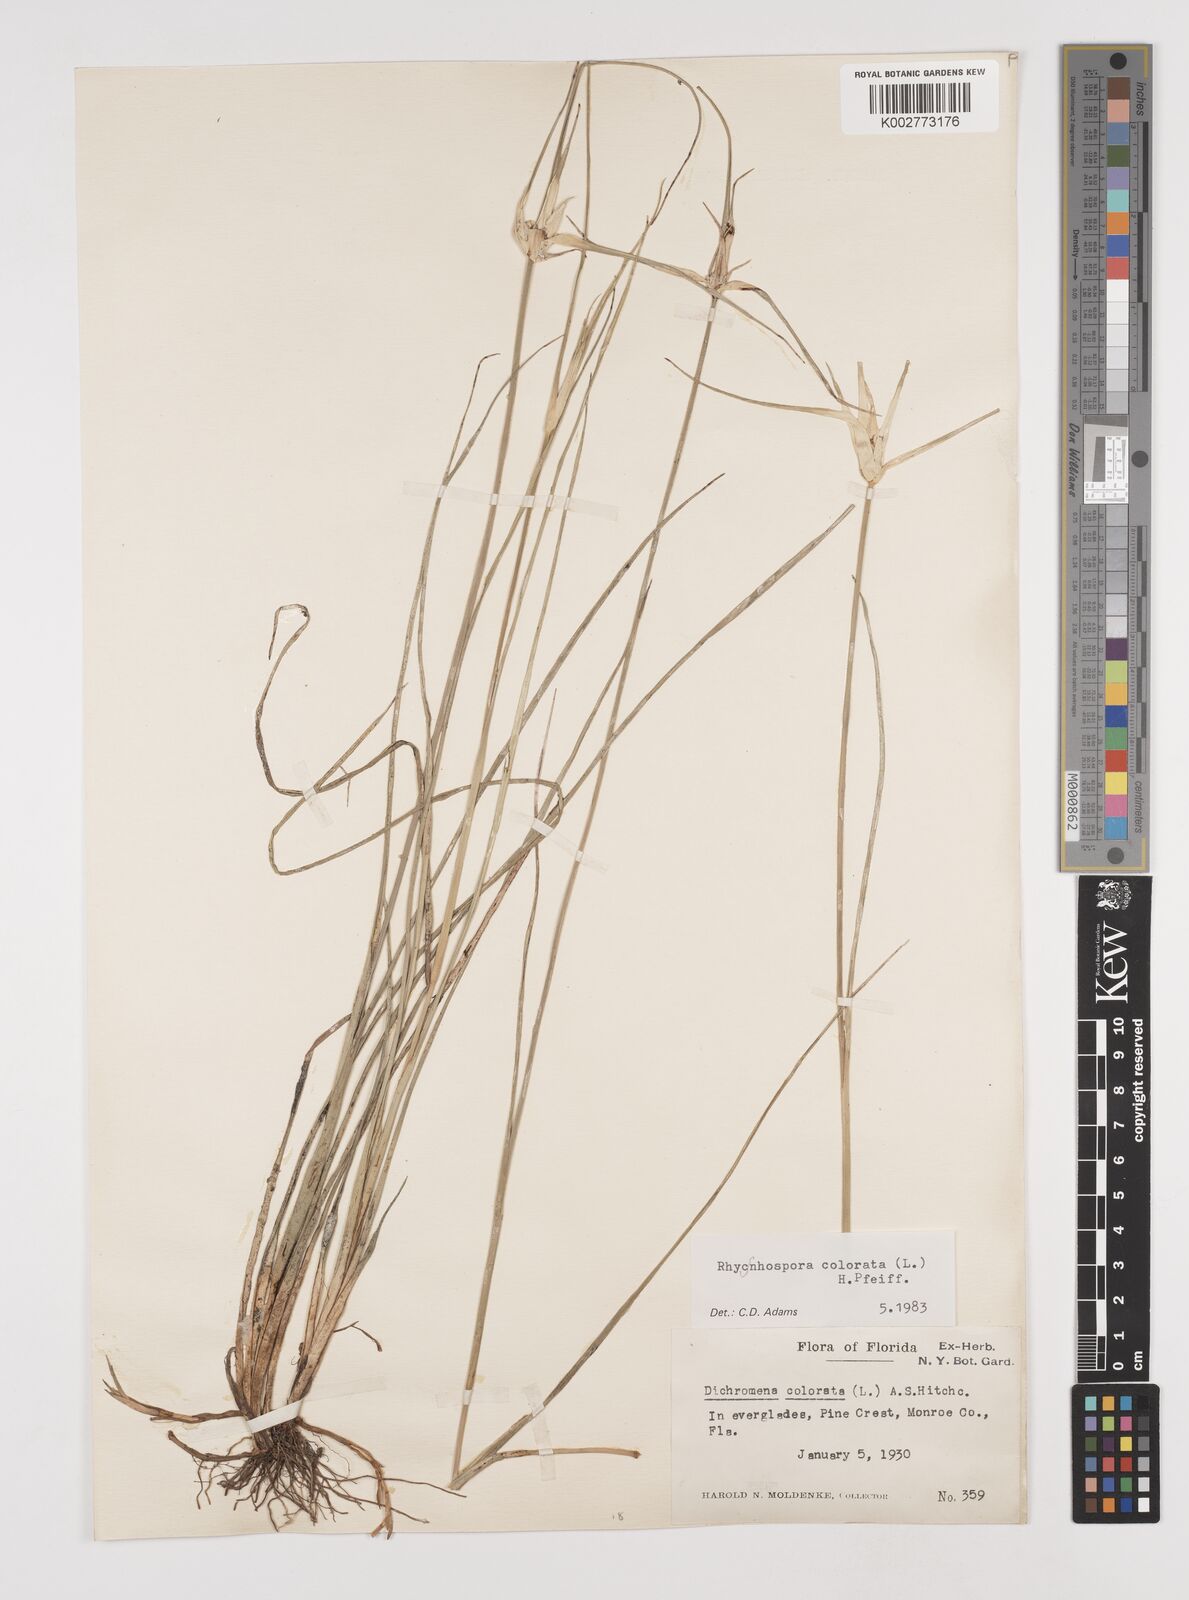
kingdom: Plantae
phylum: Tracheophyta
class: Liliopsida
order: Poales
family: Cyperaceae
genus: Rhynchospora
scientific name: Rhynchospora colorata
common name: Star sedge
